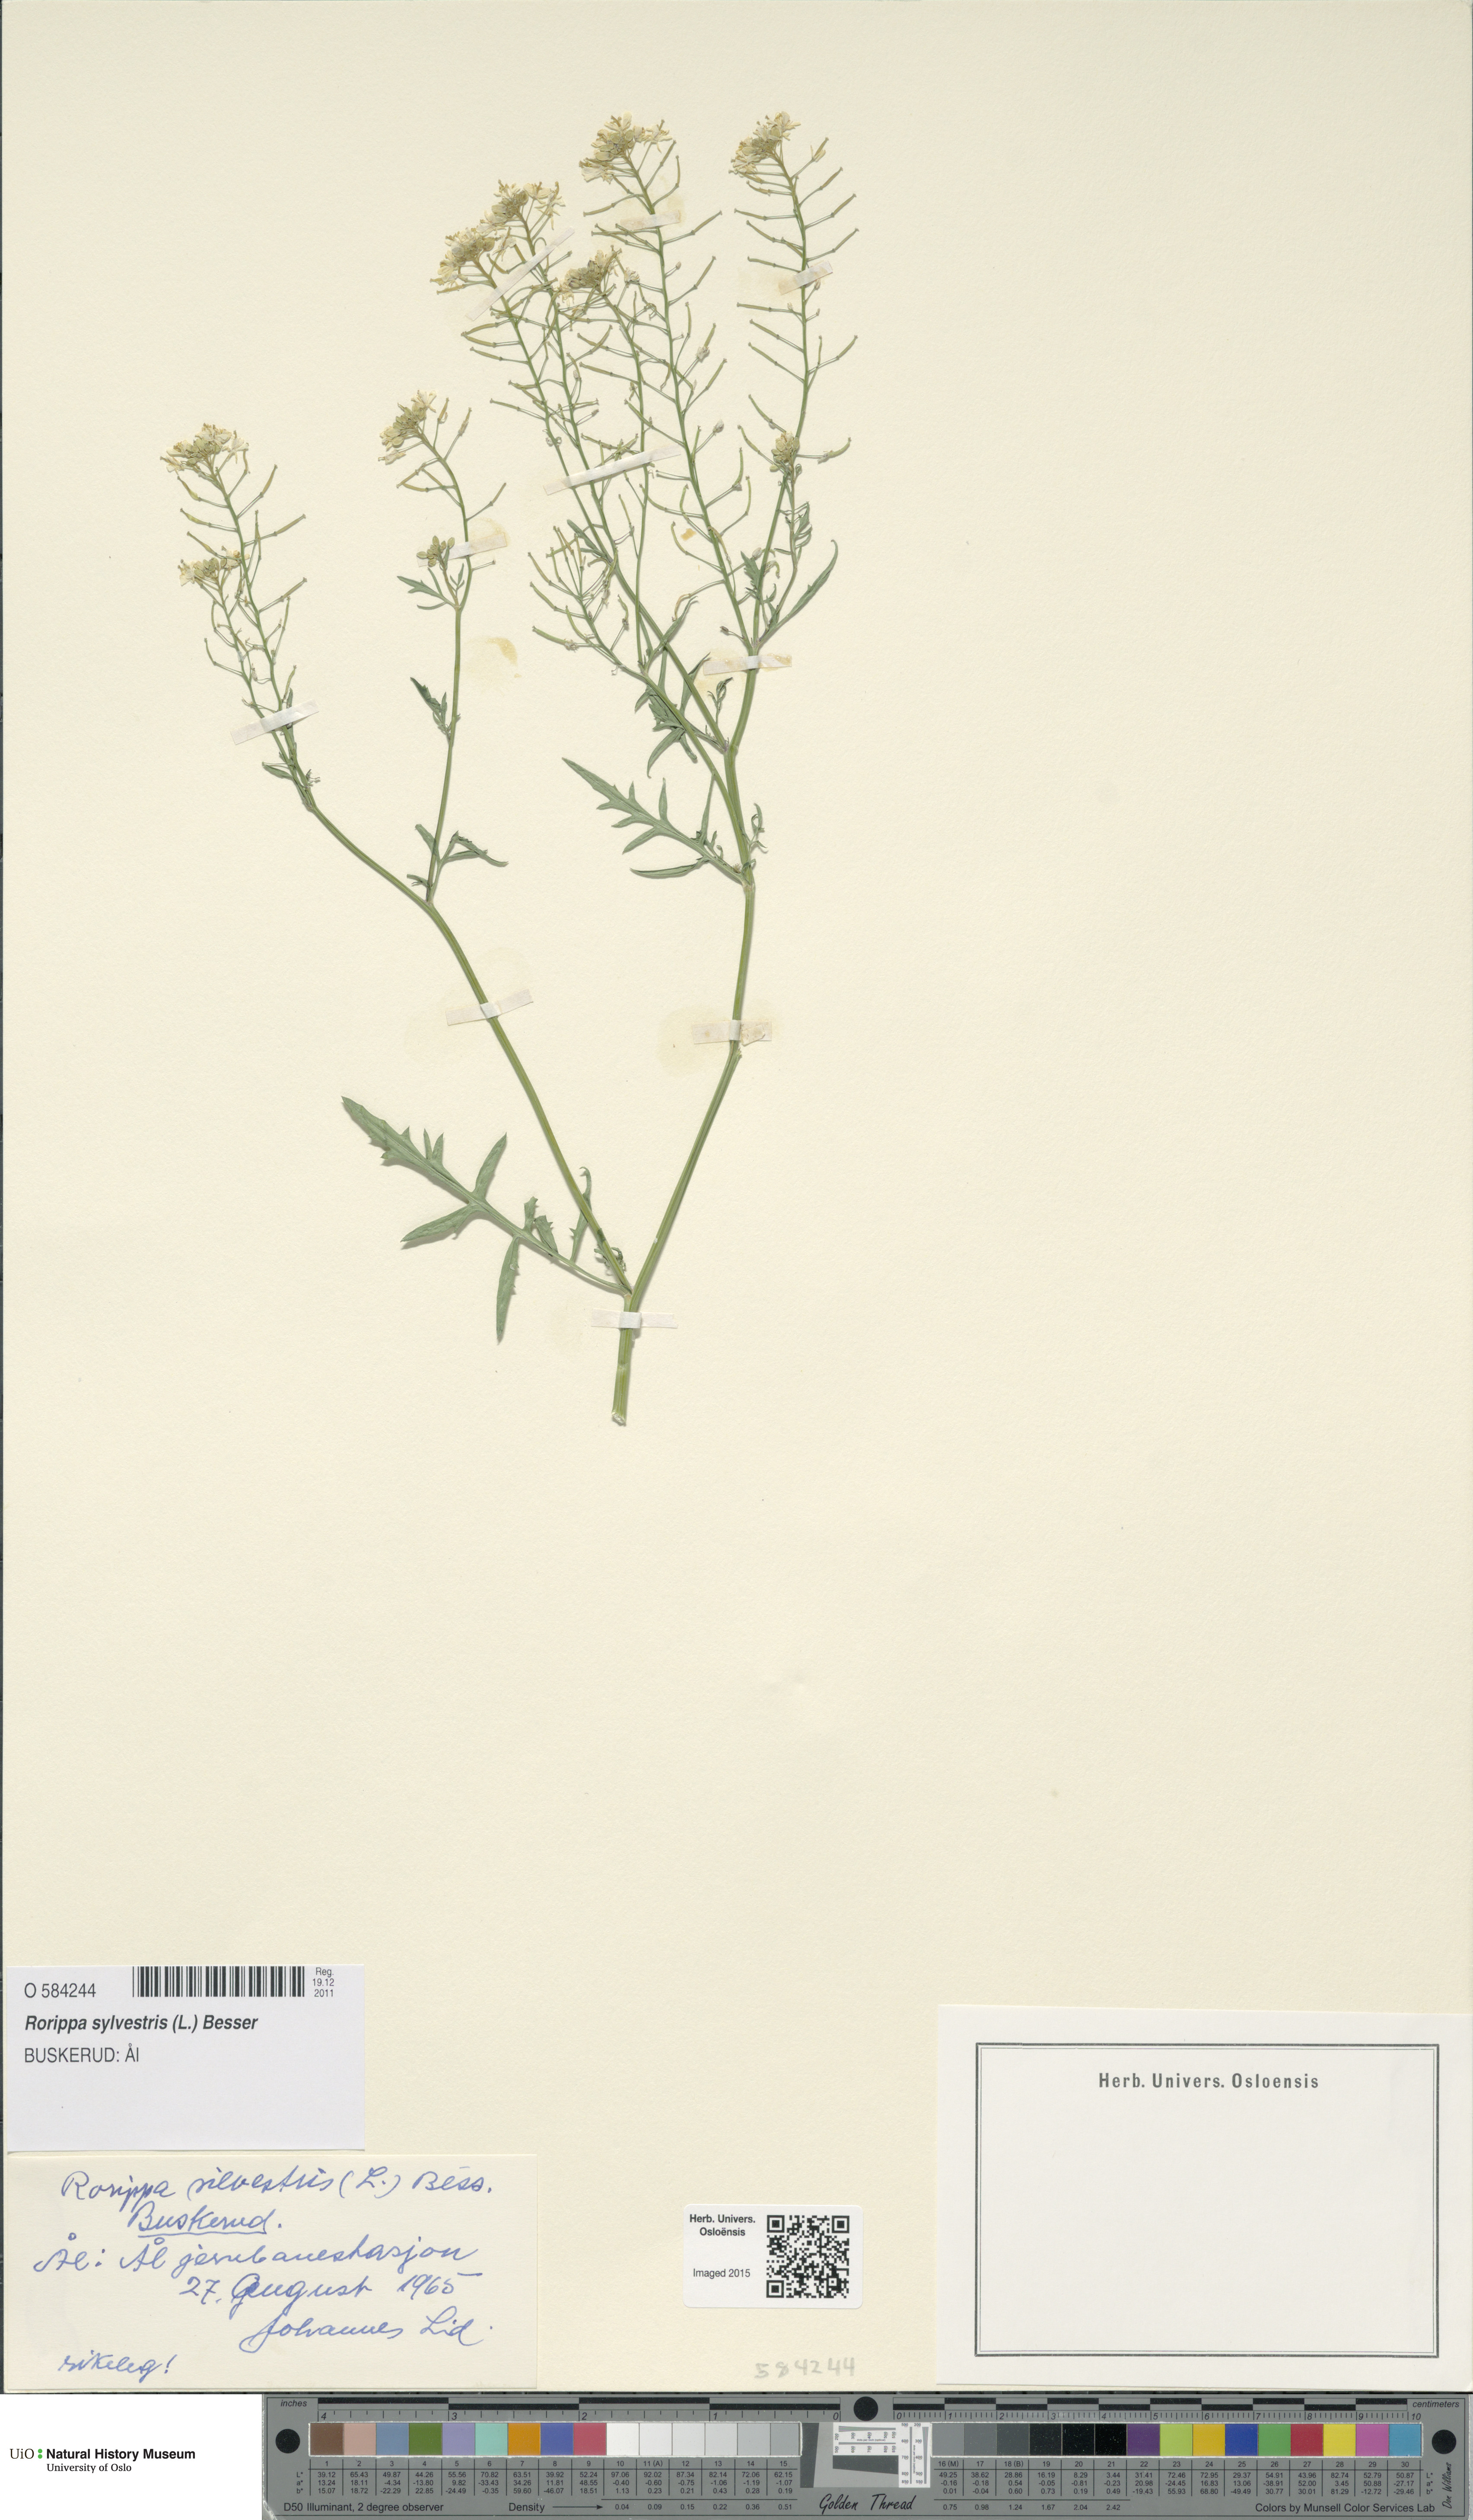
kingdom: Plantae
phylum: Tracheophyta
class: Magnoliopsida
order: Brassicales
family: Brassicaceae
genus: Rorippa
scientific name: Rorippa sylvestris
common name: Creeping yellowcress
